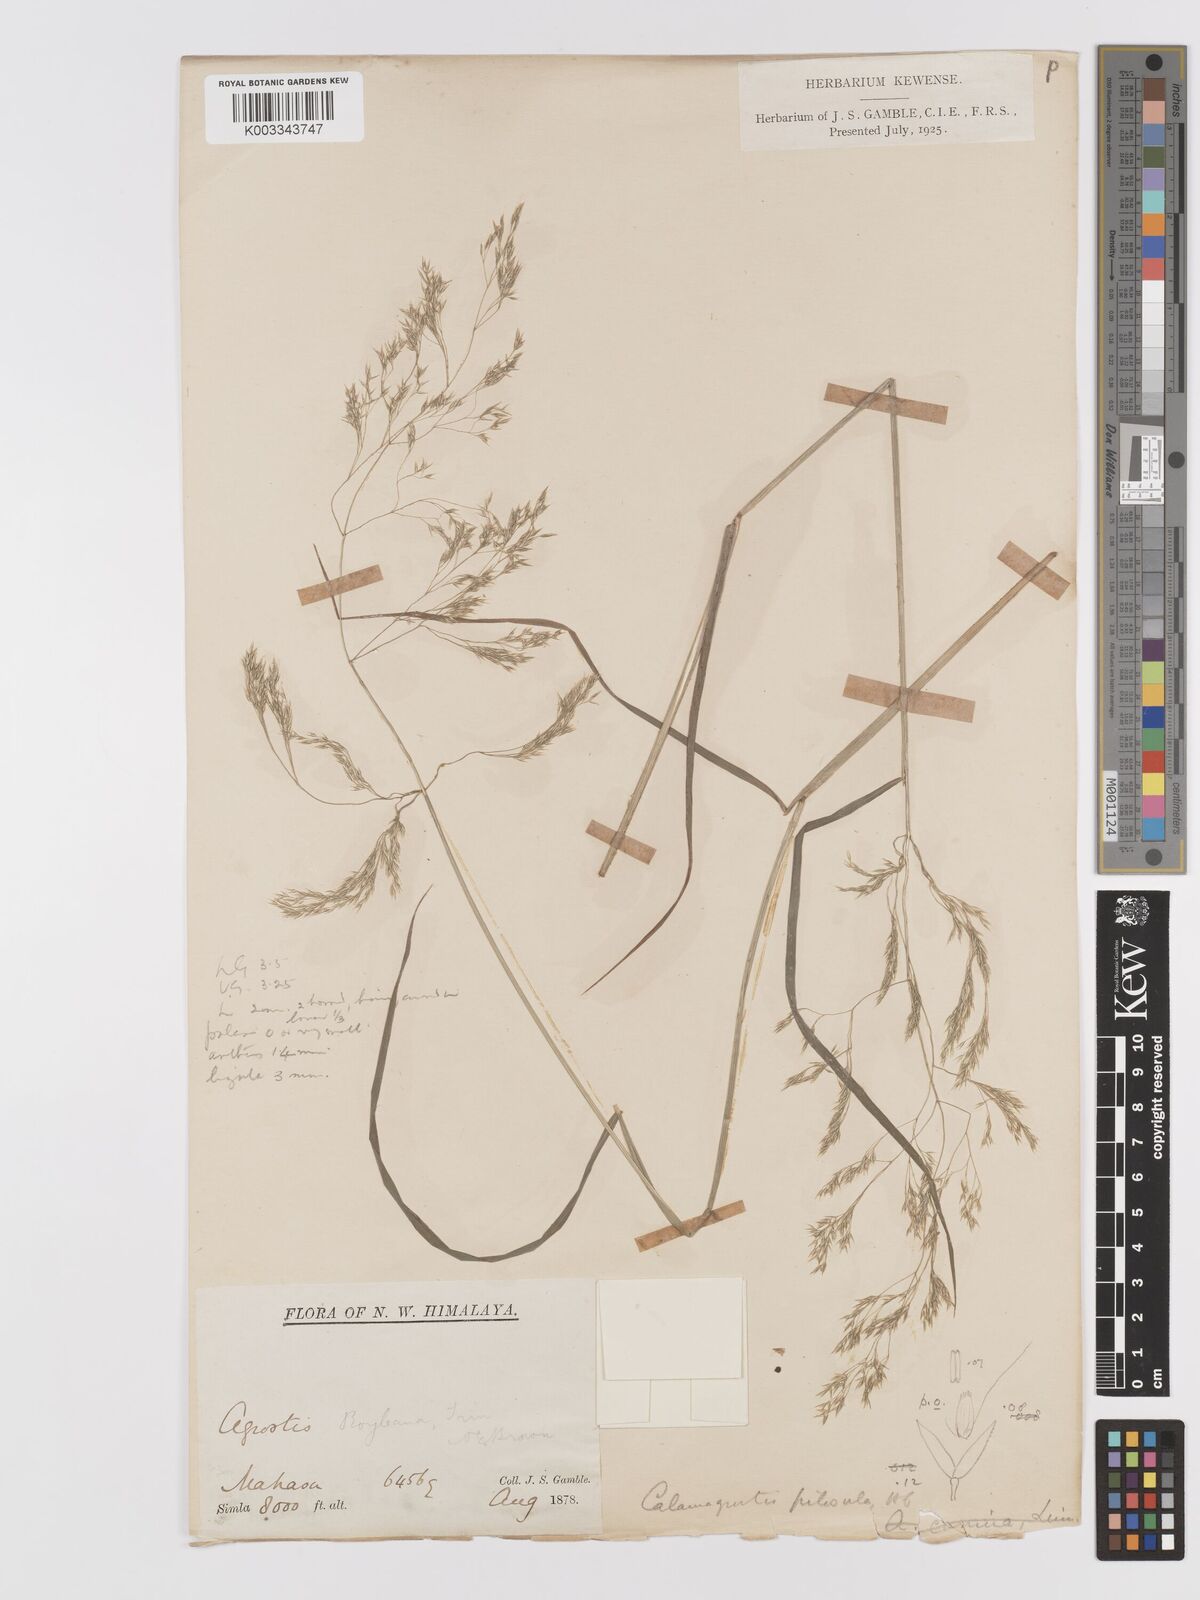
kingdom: Plantae
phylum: Tracheophyta
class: Liliopsida
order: Poales
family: Poaceae
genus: Agrostis
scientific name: Agrostis pilosula
